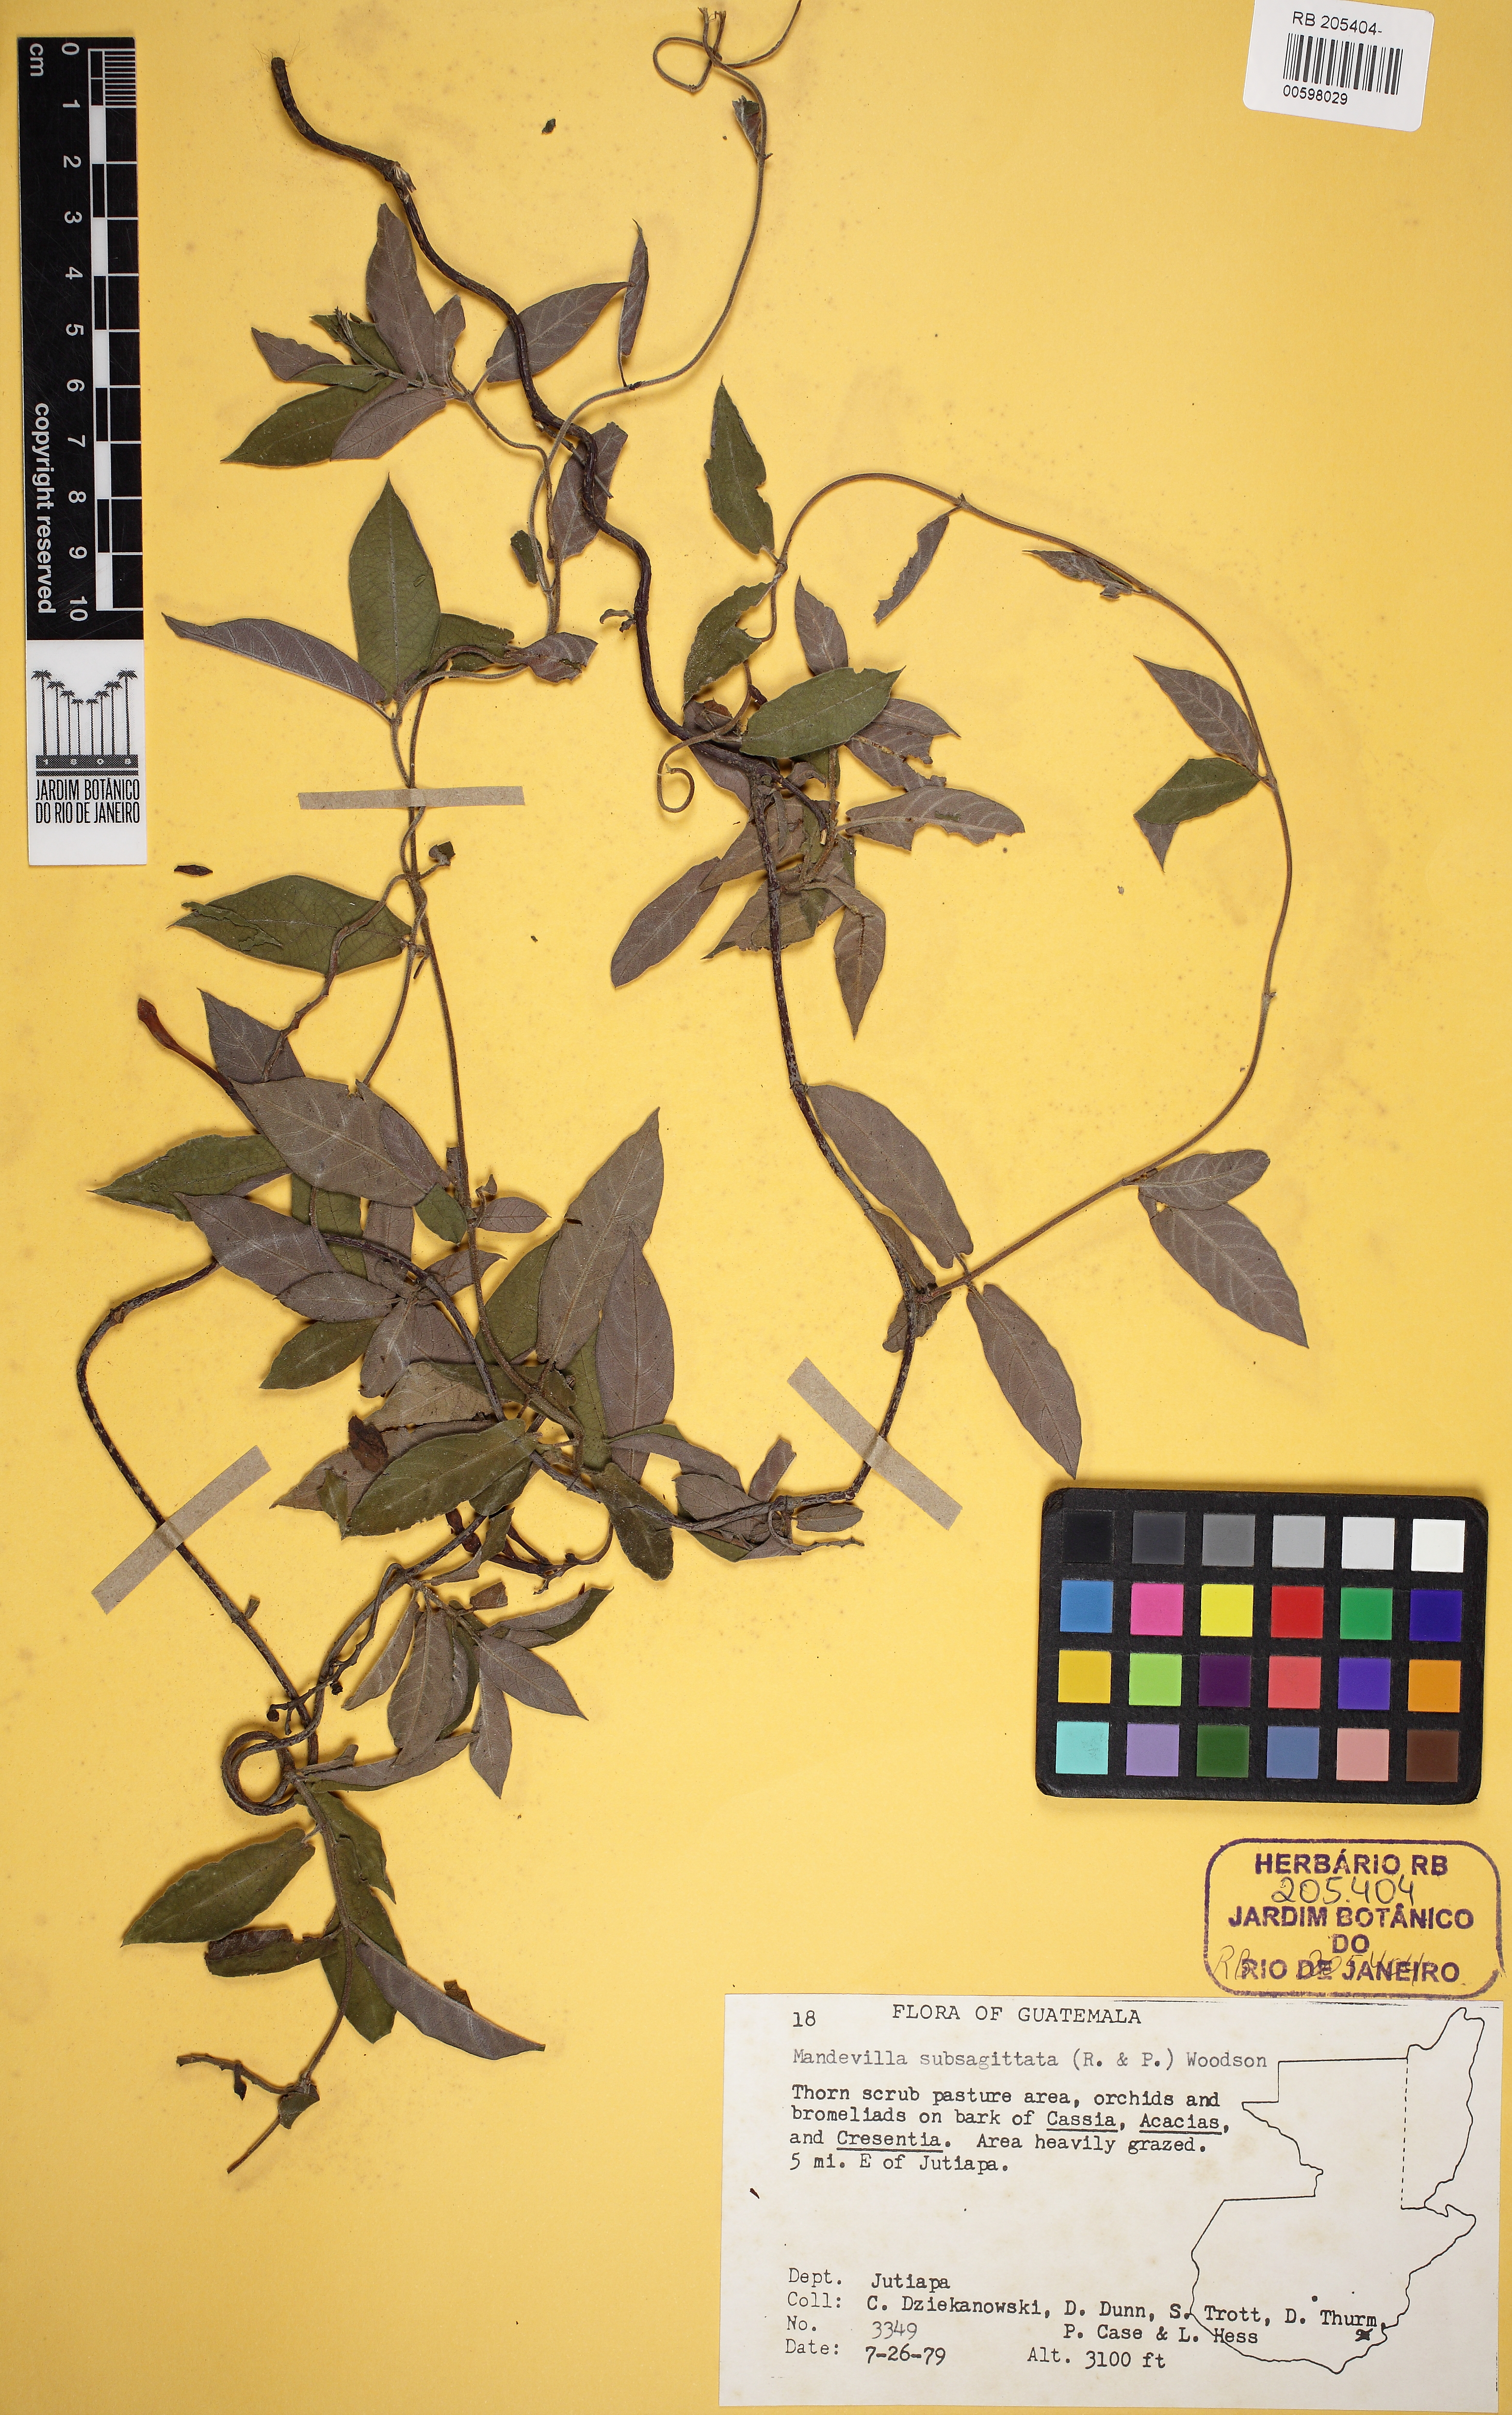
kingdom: Plantae
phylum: Tracheophyta
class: Magnoliopsida
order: Gentianales
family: Apocynaceae
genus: Mandevilla
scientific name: Mandevilla subsagittata
